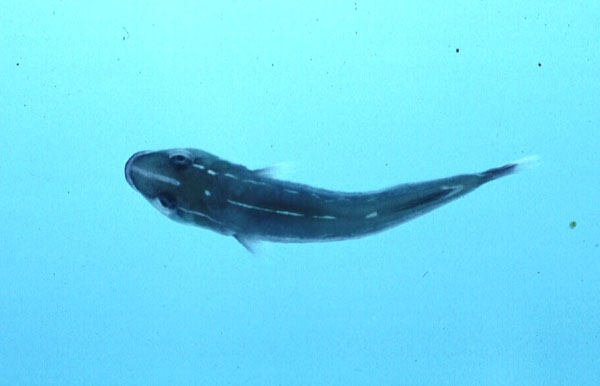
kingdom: Animalia
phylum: Chordata
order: Gobiesociformes
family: Gobiesocidae
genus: Lepadichthys
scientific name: Lepadichthys lineatus
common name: Doubleline clingfish
